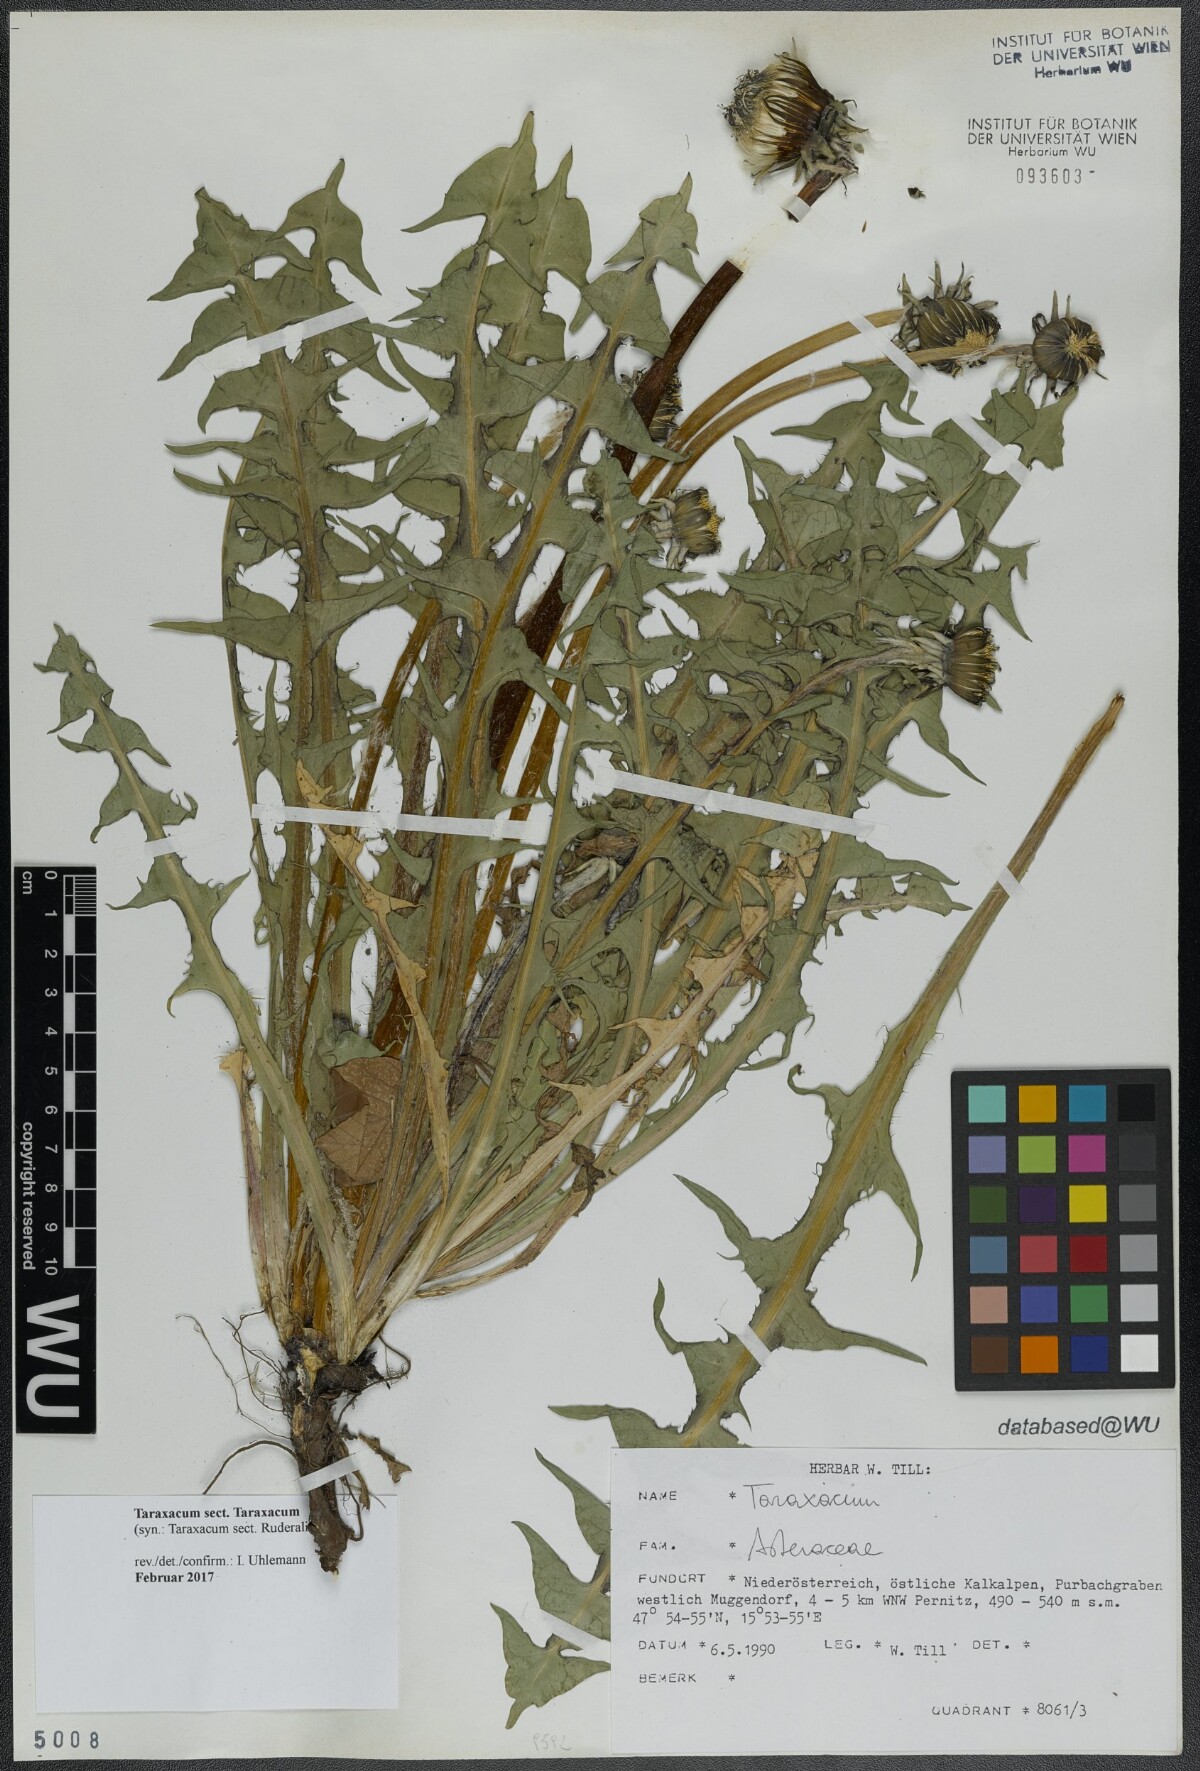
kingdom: Plantae
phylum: Tracheophyta
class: Magnoliopsida
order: Asterales
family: Asteraceae
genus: Taraxacum
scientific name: Taraxacum
